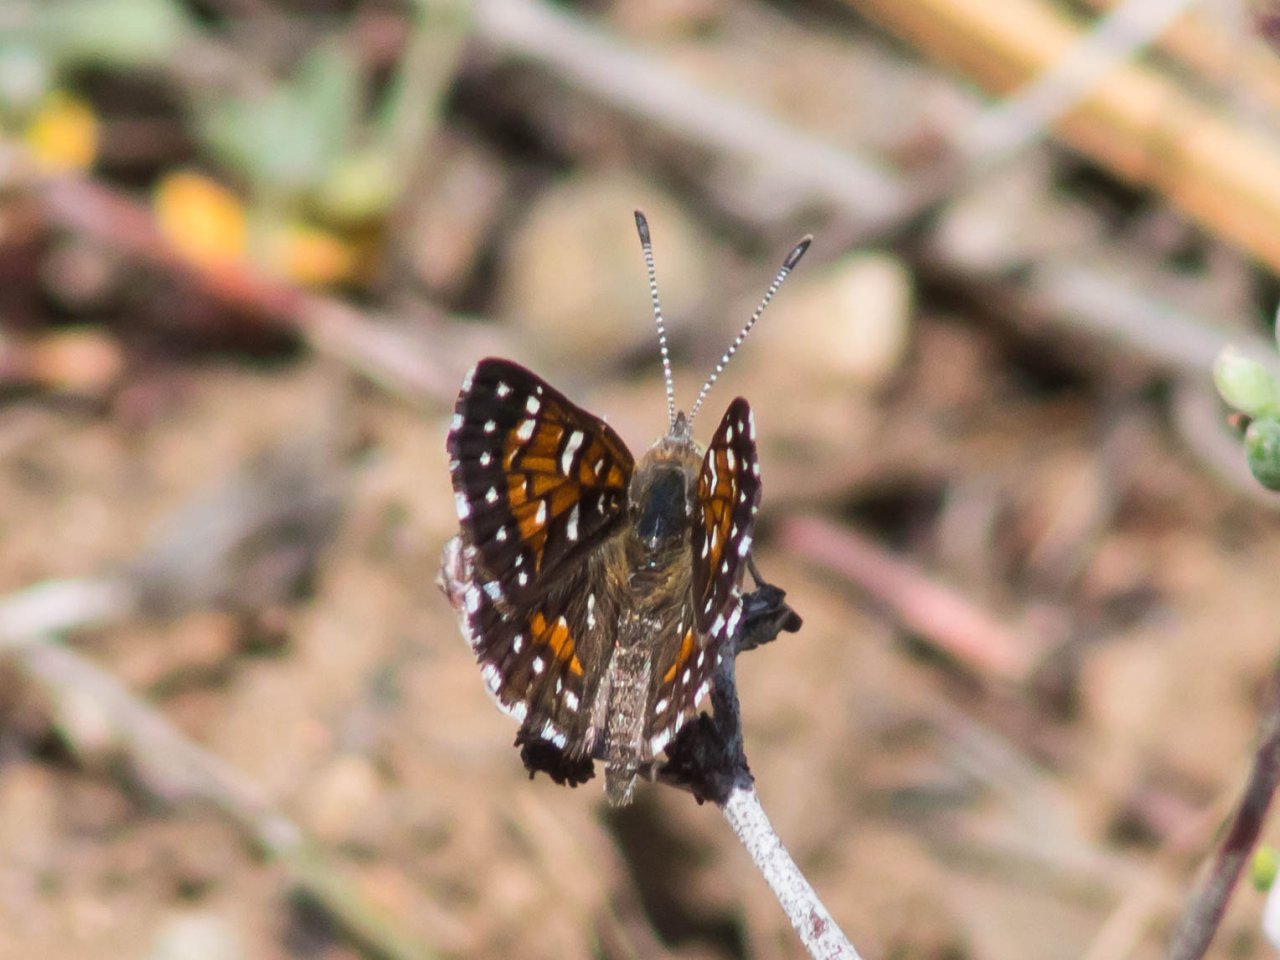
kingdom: Animalia
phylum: Arthropoda
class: Insecta
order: Lepidoptera
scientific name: Lepidoptera
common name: Butterflies
